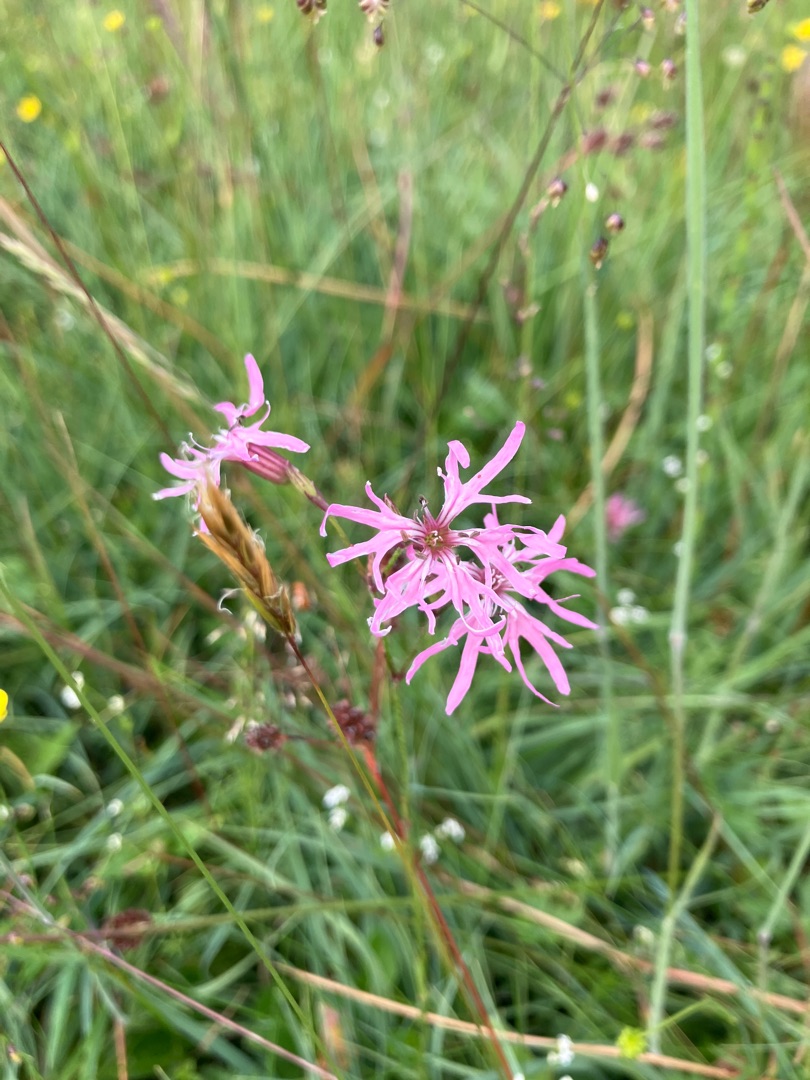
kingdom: Plantae
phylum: Tracheophyta
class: Magnoliopsida
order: Caryophyllales
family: Caryophyllaceae
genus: Silene
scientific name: Silene flos-cuculi
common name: Trævlekrone
